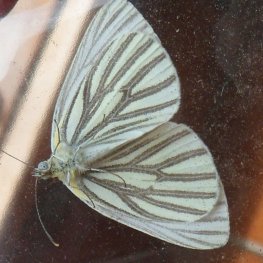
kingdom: Animalia
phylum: Arthropoda
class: Insecta
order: Lepidoptera
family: Pieridae
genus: Pieris
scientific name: Pieris oleracea
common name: Mustard White
